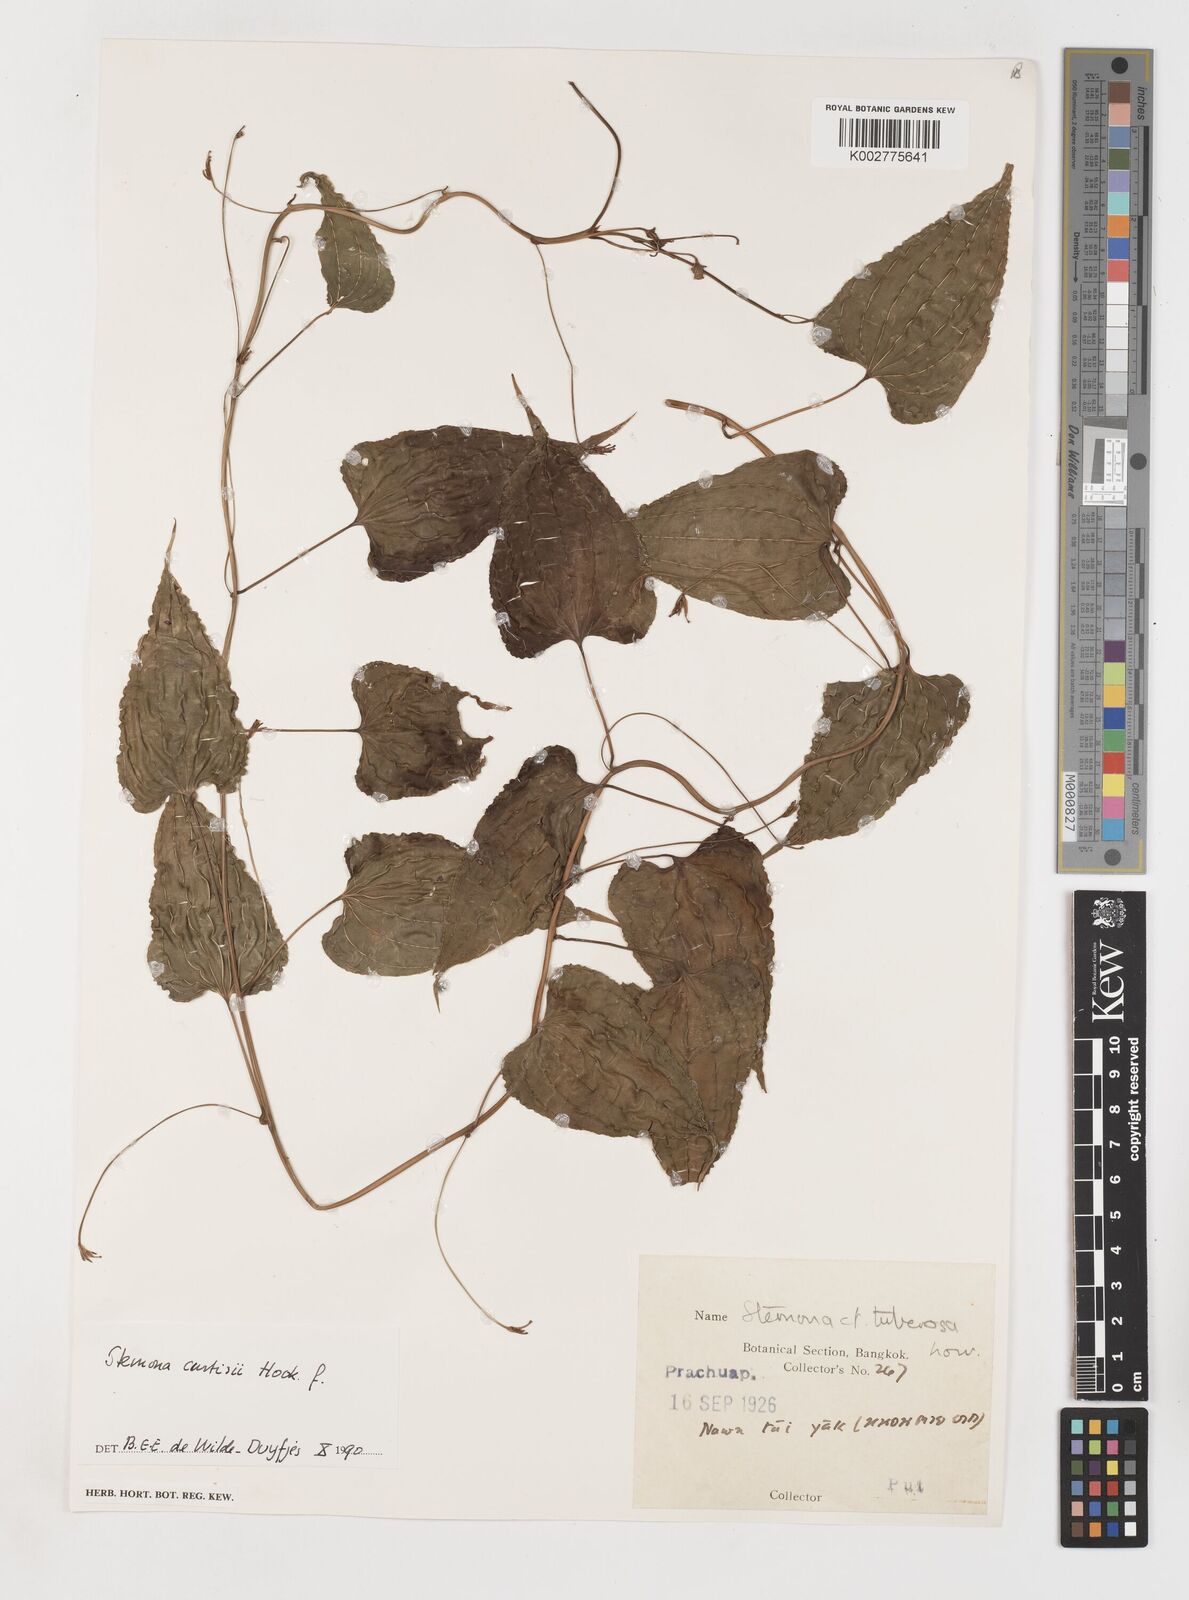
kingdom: Plantae
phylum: Tracheophyta
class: Liliopsida
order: Pandanales
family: Stemonaceae
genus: Stemona
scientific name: Stemona curtisii
